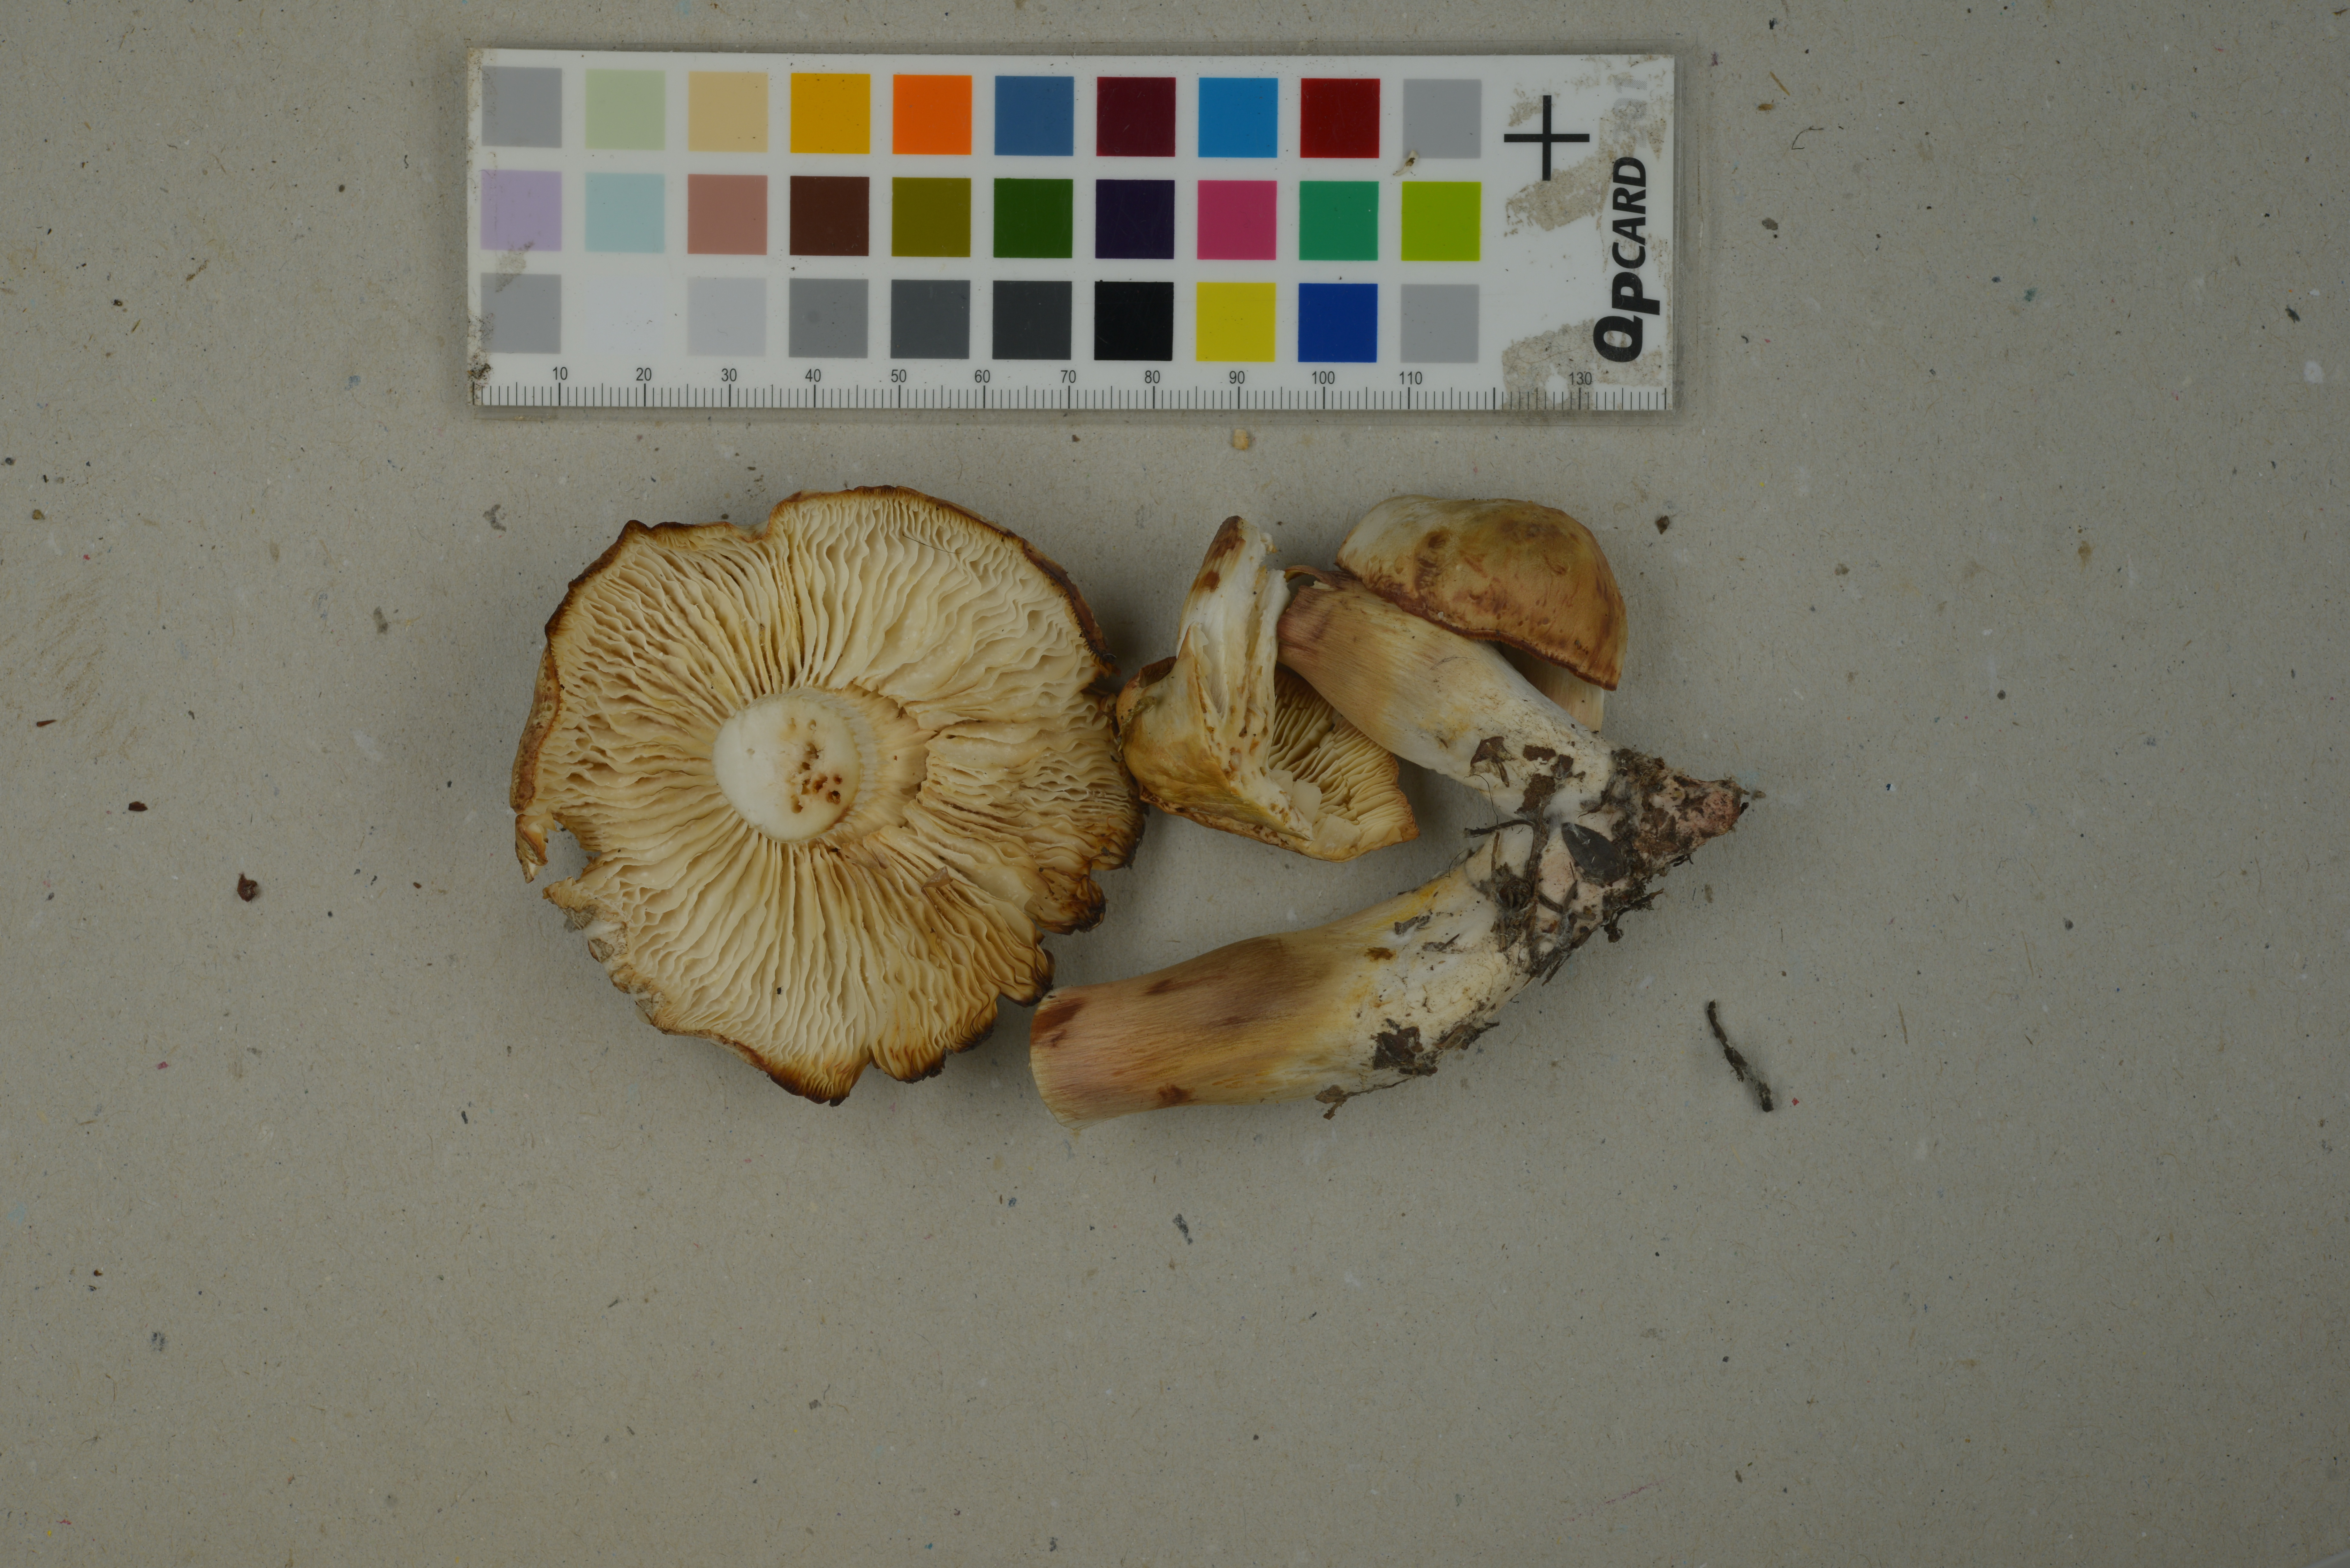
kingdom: Fungi
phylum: Basidiomycota
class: Agaricomycetes
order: Agaricales
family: Tricholomataceae
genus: Tricholoma
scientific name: Tricholoma saponaceum
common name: Soapy trich
